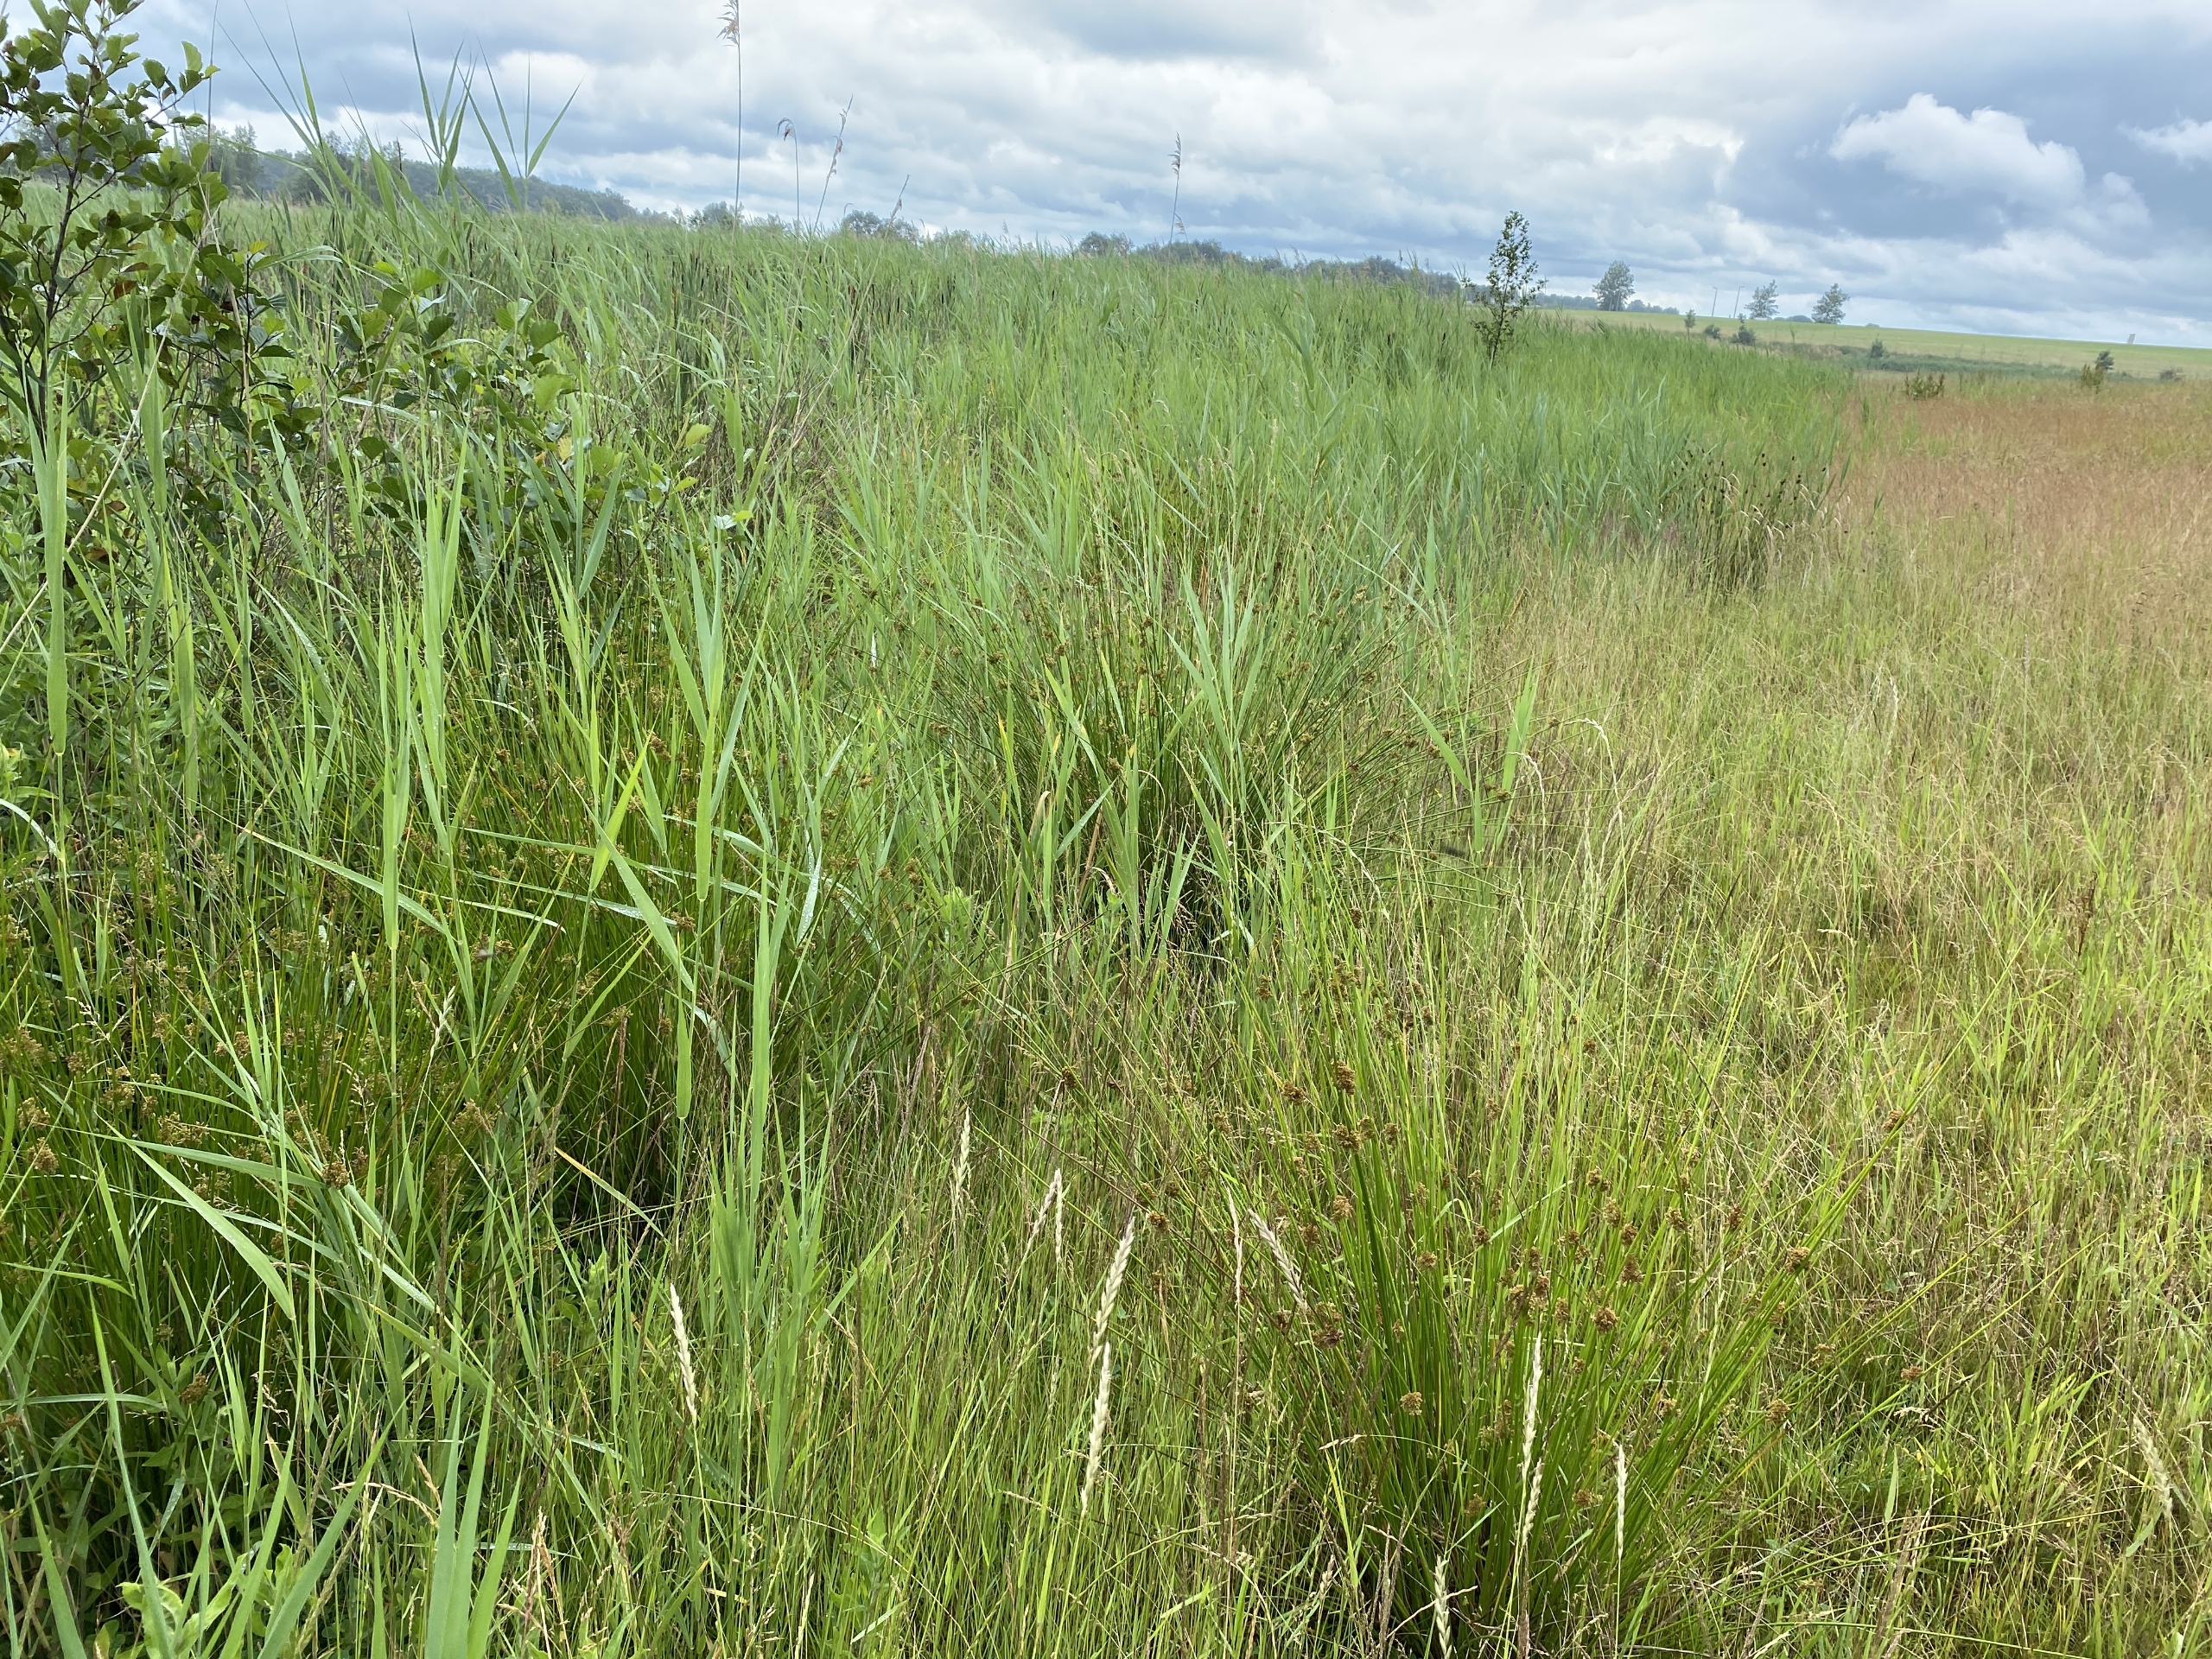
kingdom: Plantae
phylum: Tracheophyta
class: Liliopsida
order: Poales
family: Juncaceae
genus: Juncus
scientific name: Juncus effusus
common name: Lyse-siv
